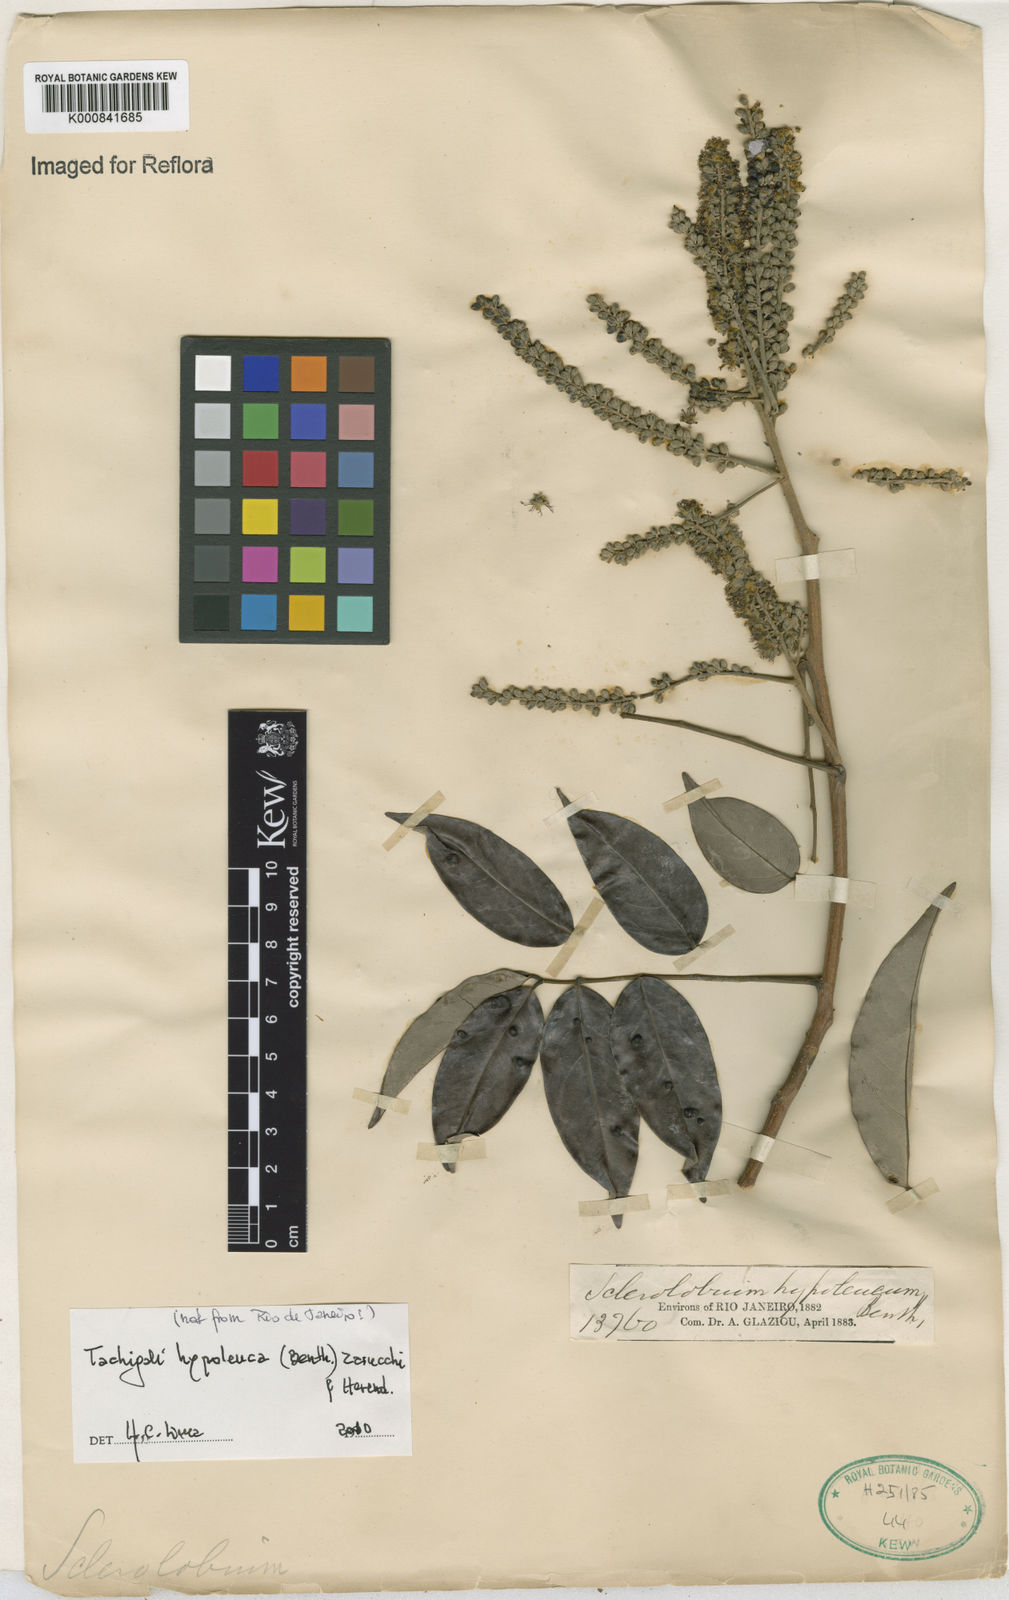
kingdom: Plantae
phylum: Tracheophyta
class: Magnoliopsida
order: Fabales
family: Fabaceae
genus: Tachigali
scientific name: Tachigali hypoleuca
